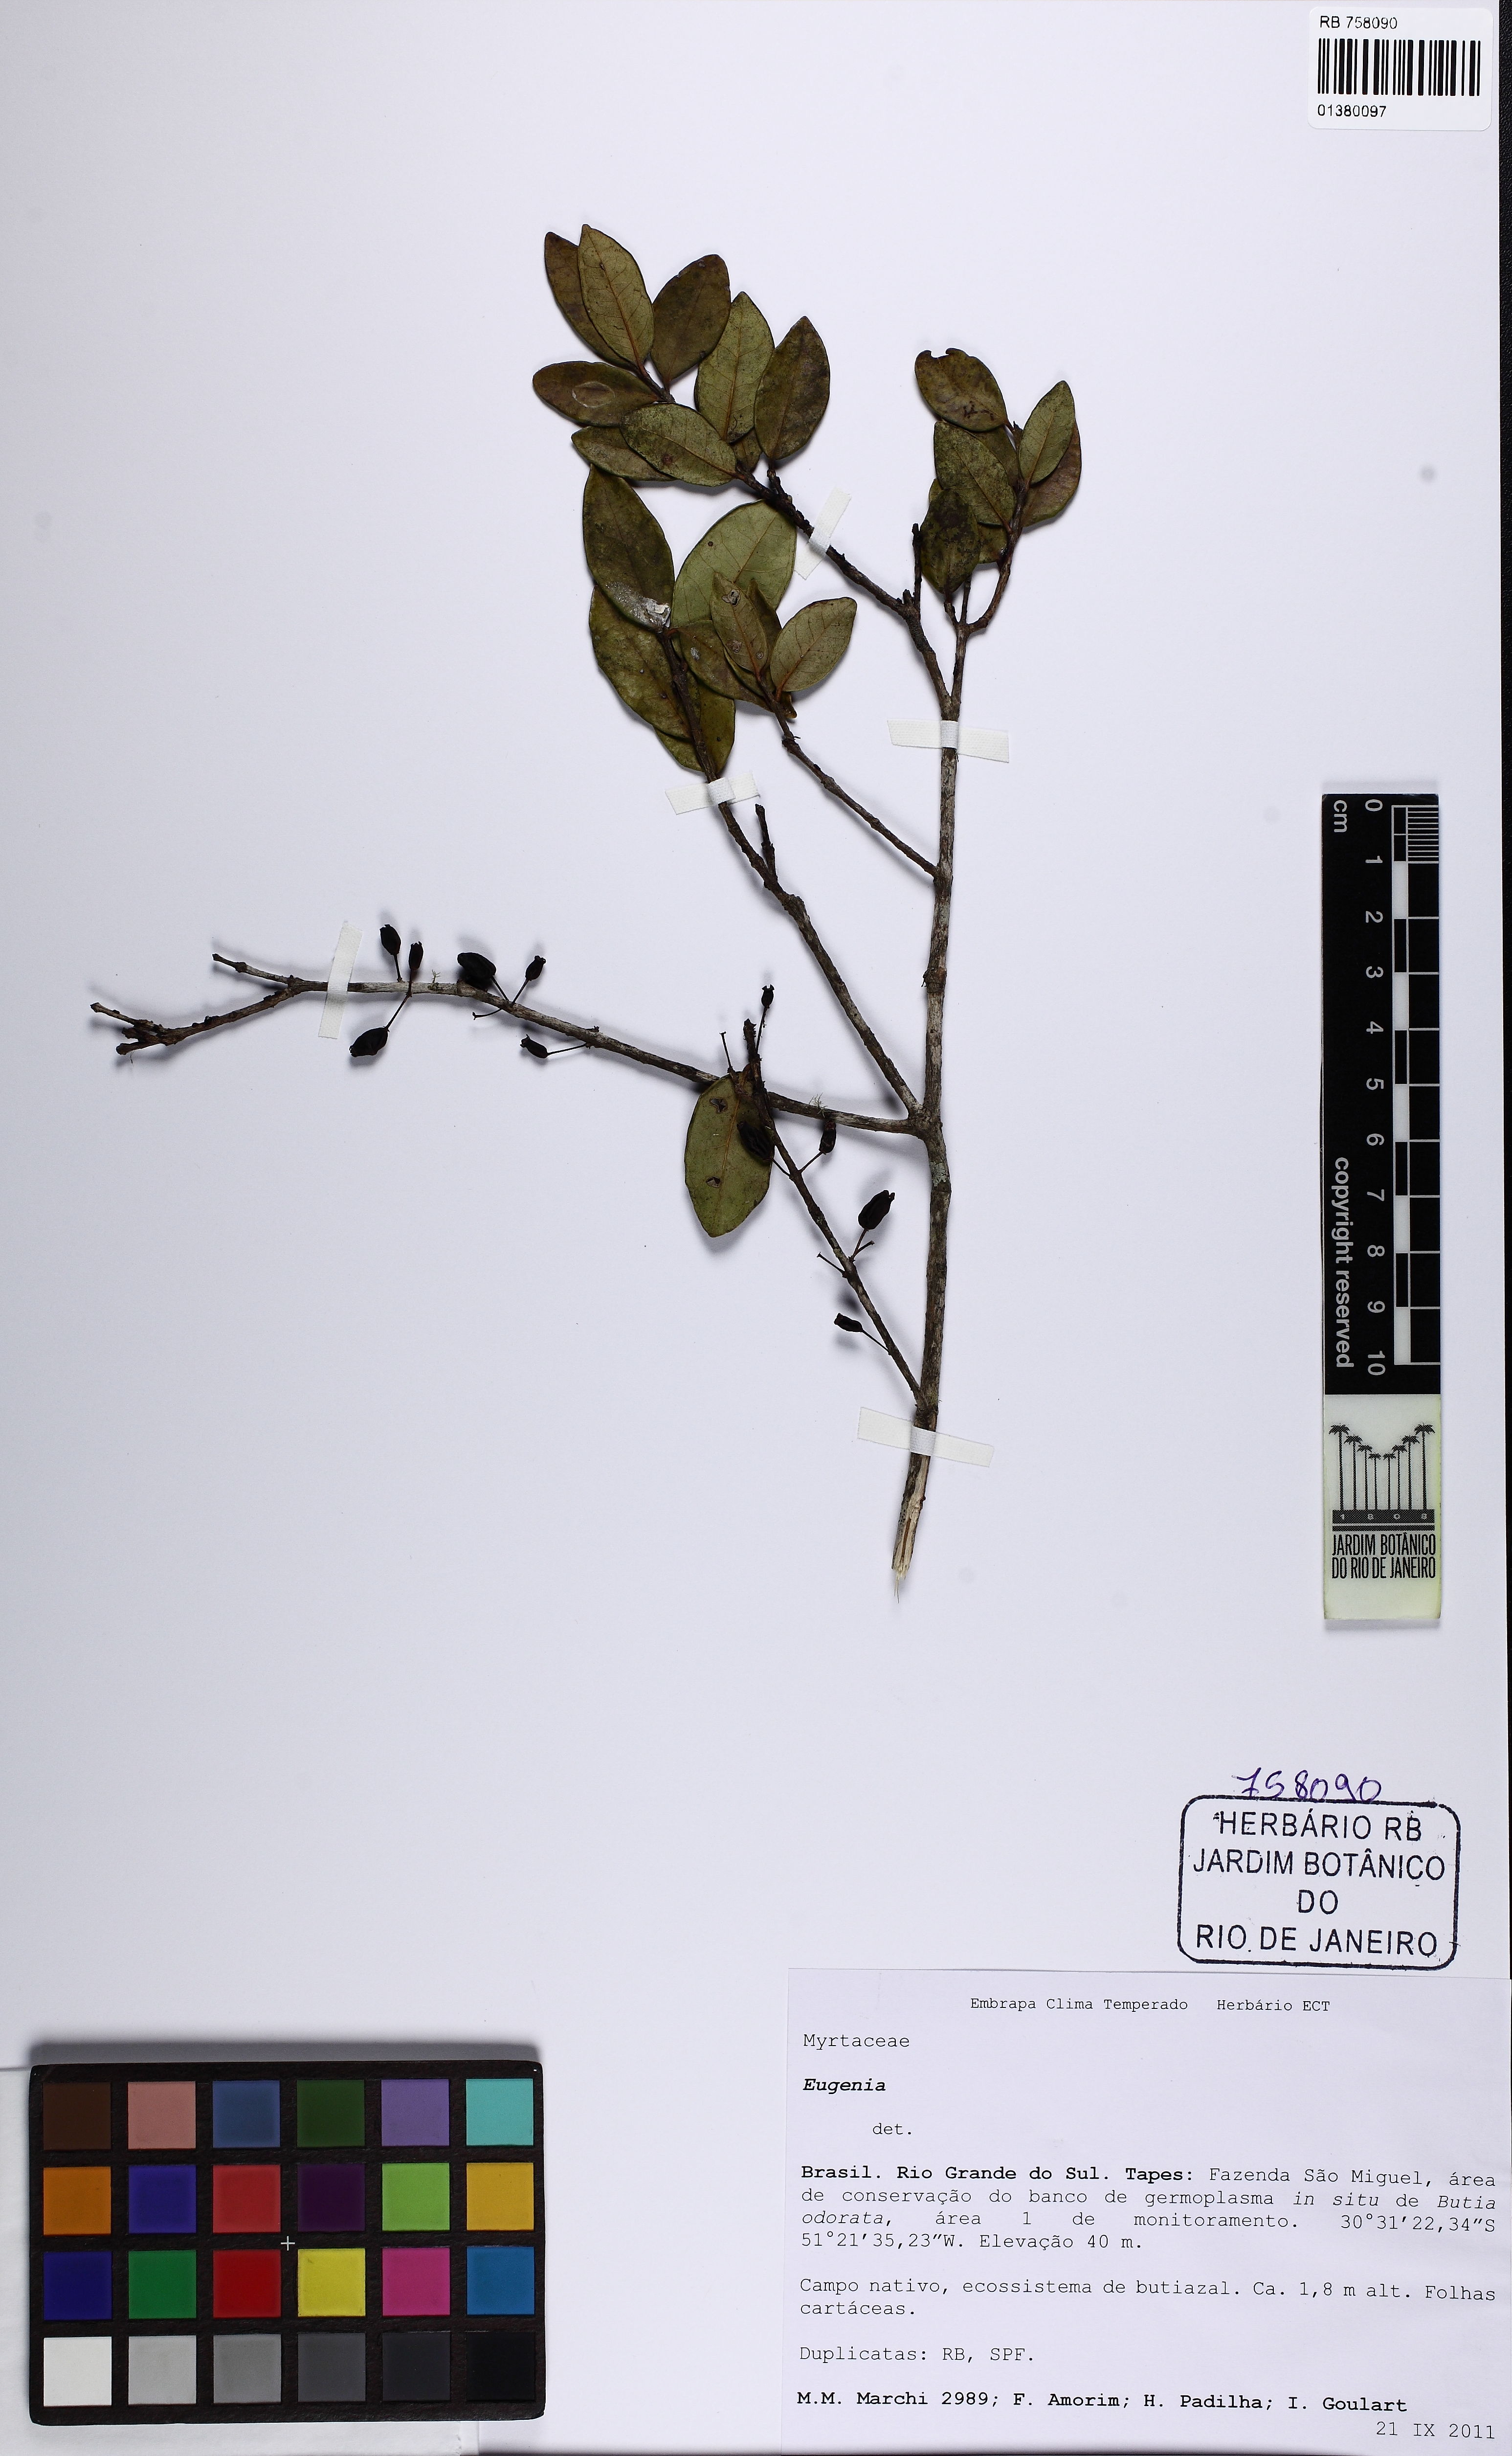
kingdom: Plantae
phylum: Tracheophyta
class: Magnoliopsida
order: Myrtales
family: Myrtaceae
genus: Eugenia
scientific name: Eugenia hiemalis
